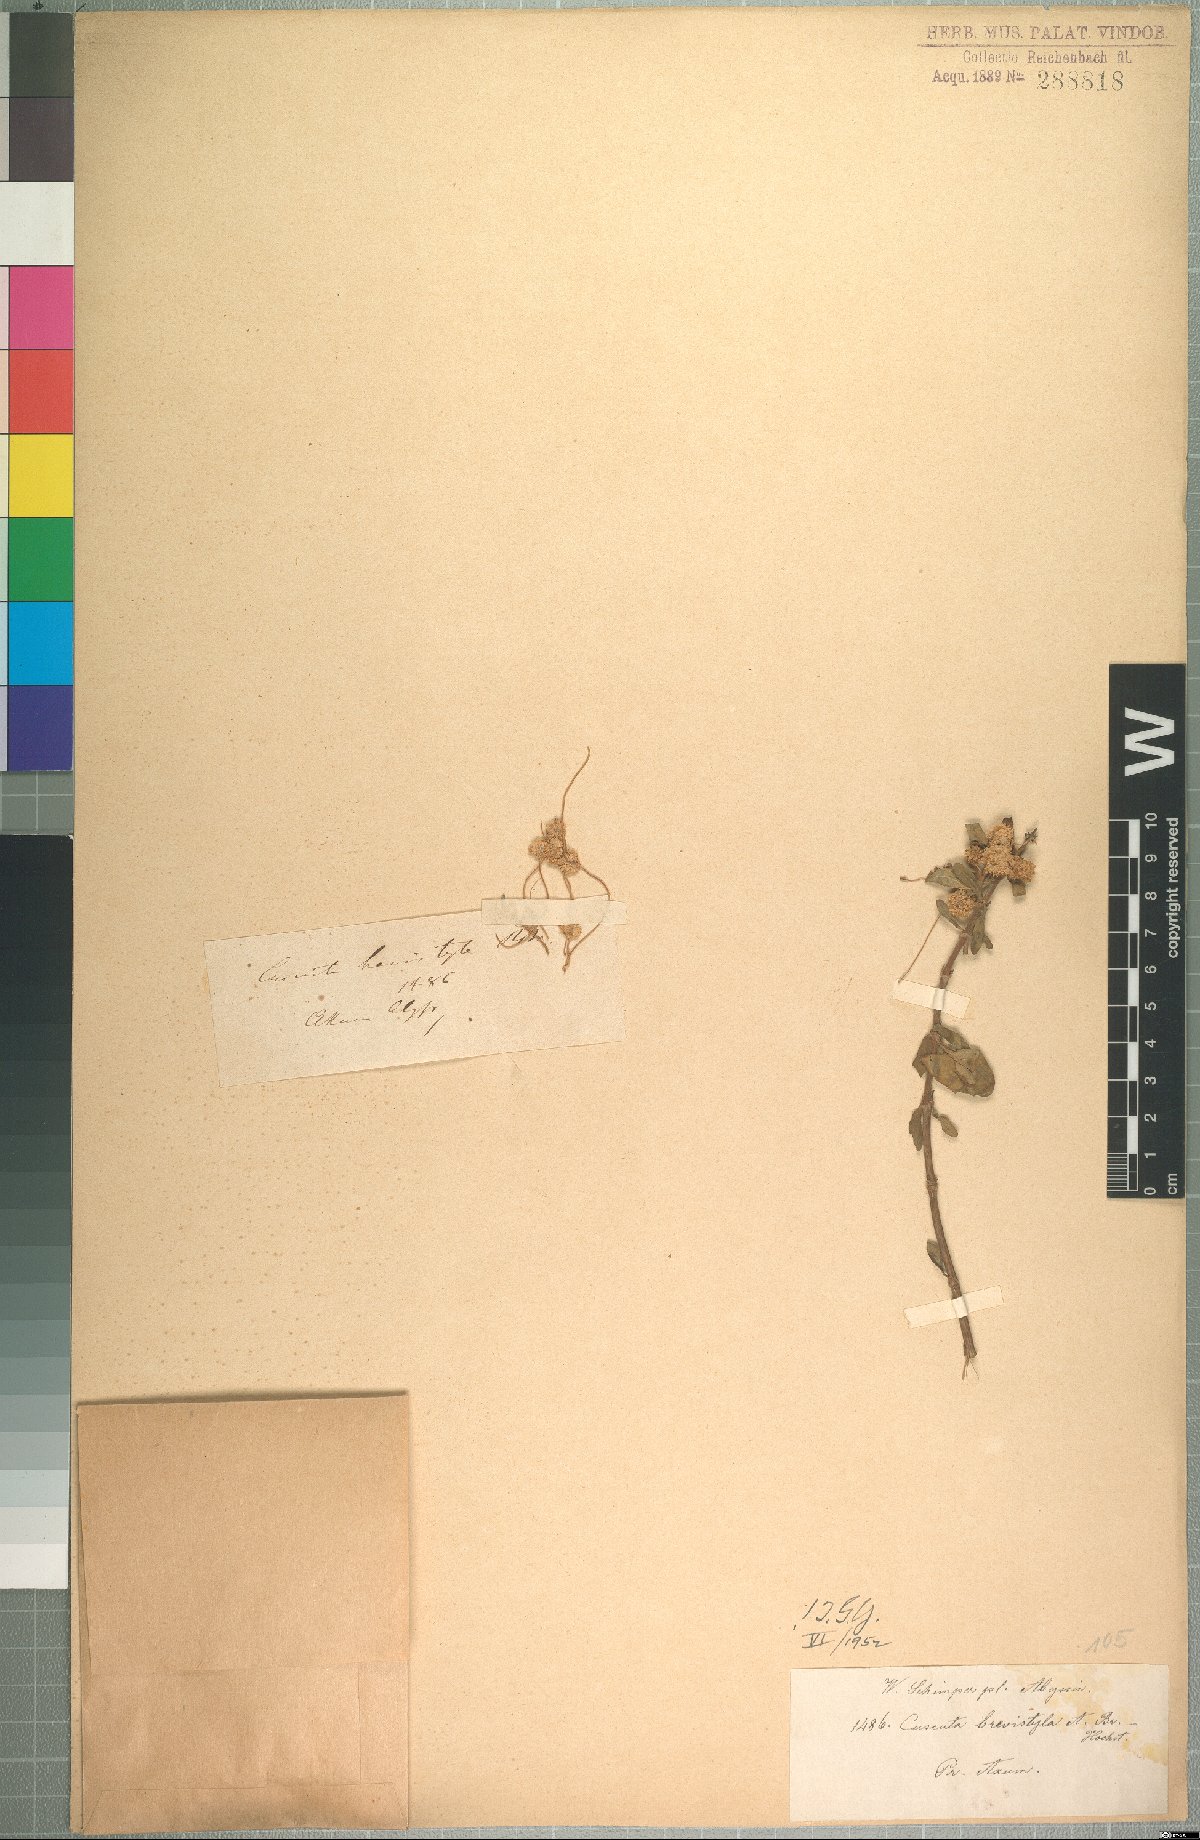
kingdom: Plantae
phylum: Tracheophyta
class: Magnoliopsida
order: Solanales
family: Convolvulaceae
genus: Cuscuta
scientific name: Cuscuta planiflora
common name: Small-seed alfalfa dodder
